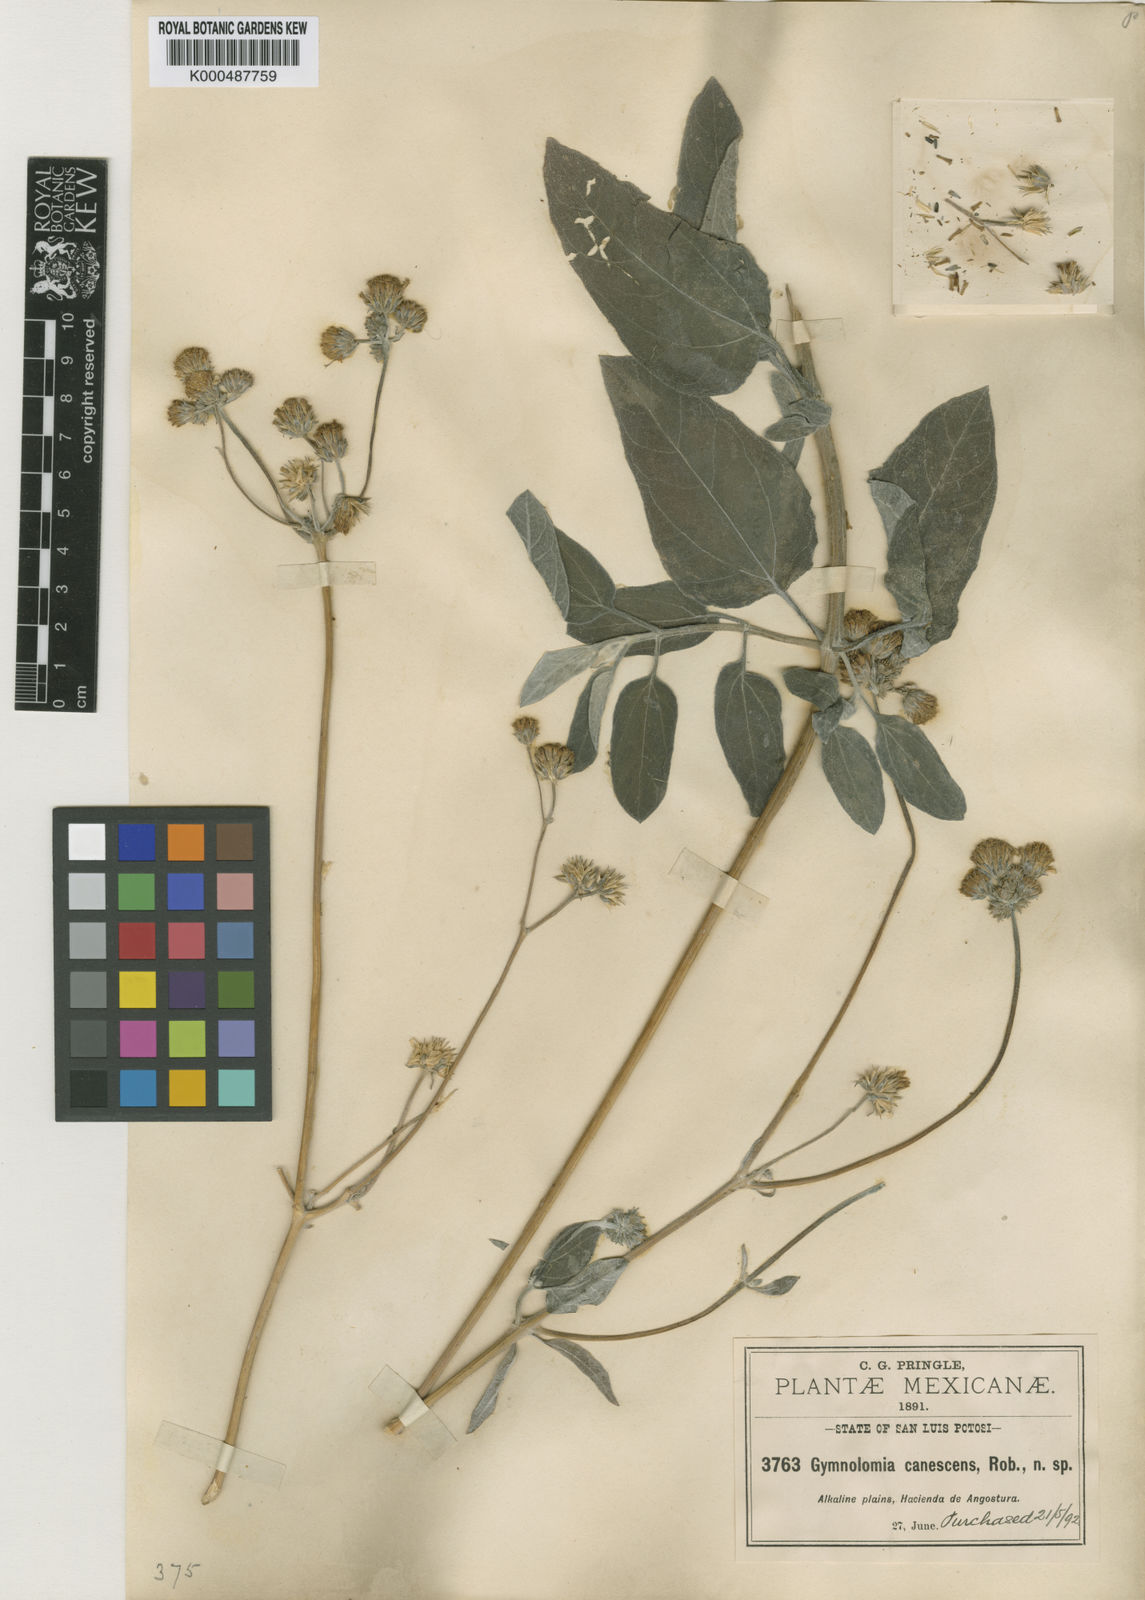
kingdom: Plantae
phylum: Tracheophyta
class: Magnoliopsida
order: Asterales
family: Asteraceae
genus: Aldama
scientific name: Aldama canescens
